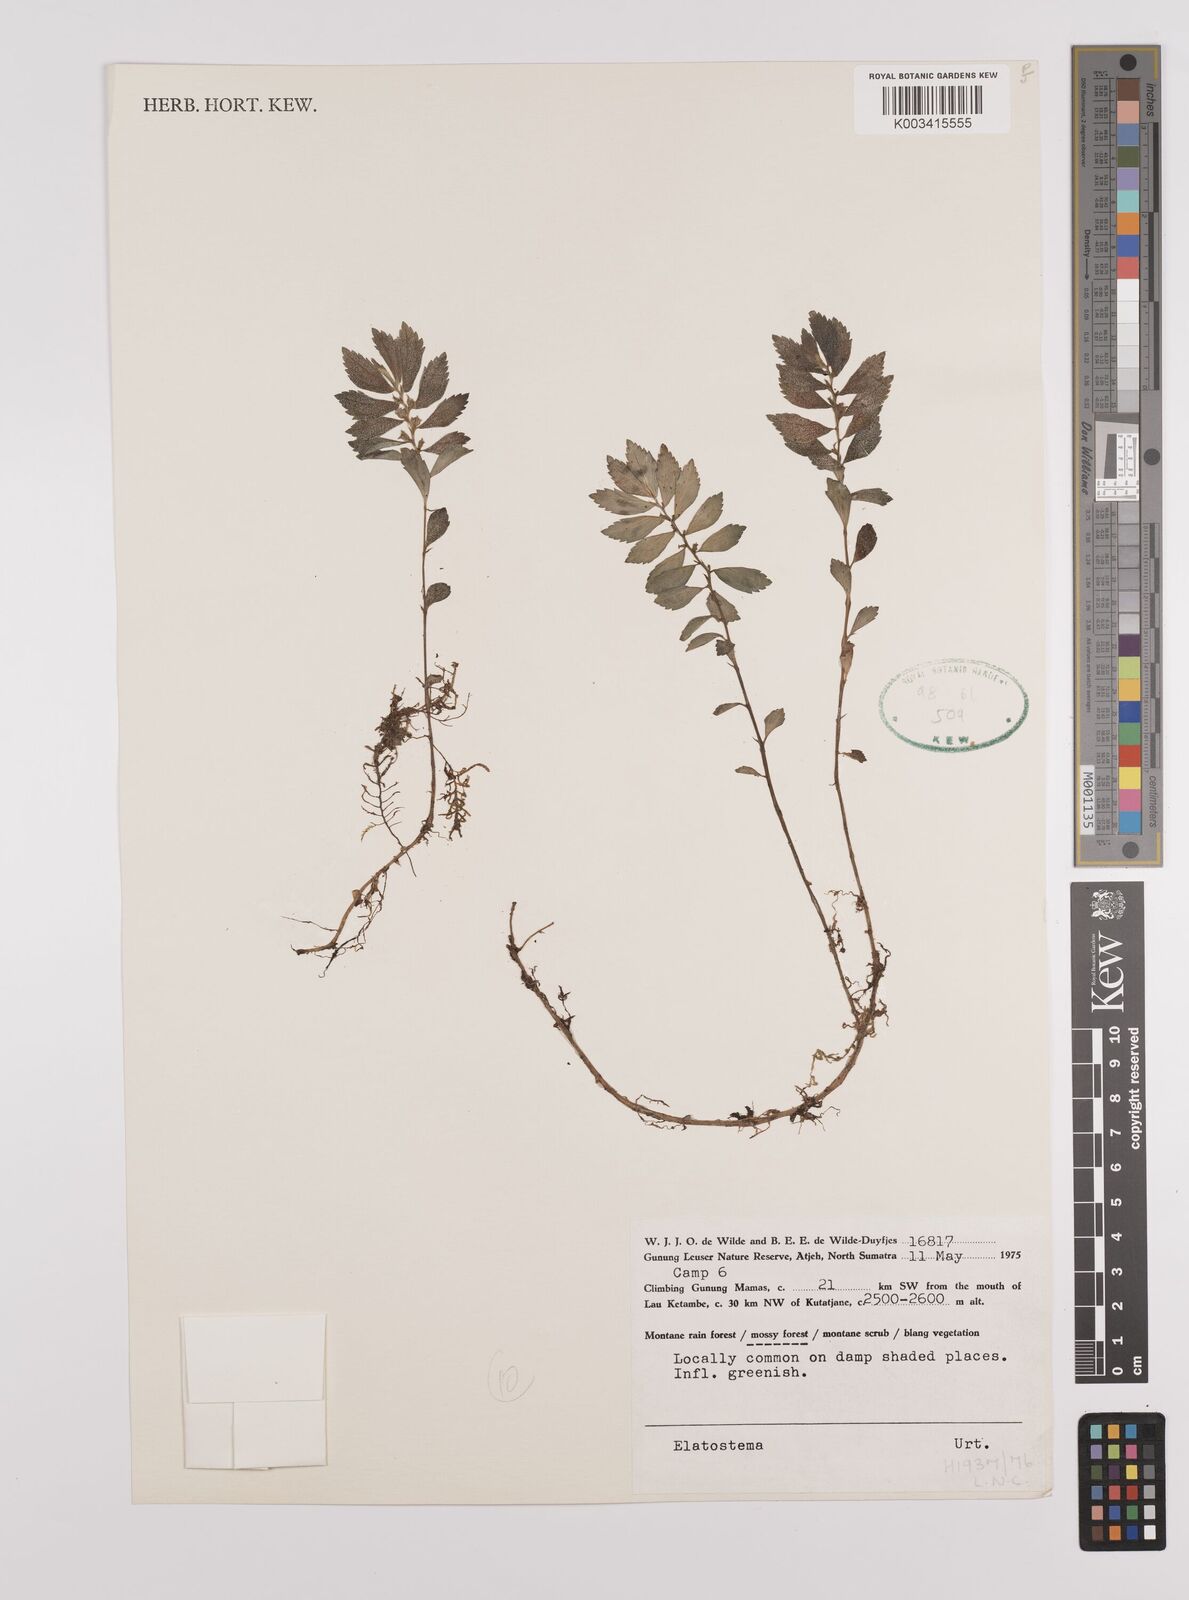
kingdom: Plantae
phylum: Tracheophyta
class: Magnoliopsida
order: Rosales
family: Urticaceae
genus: Elatostema
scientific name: Elatostema
